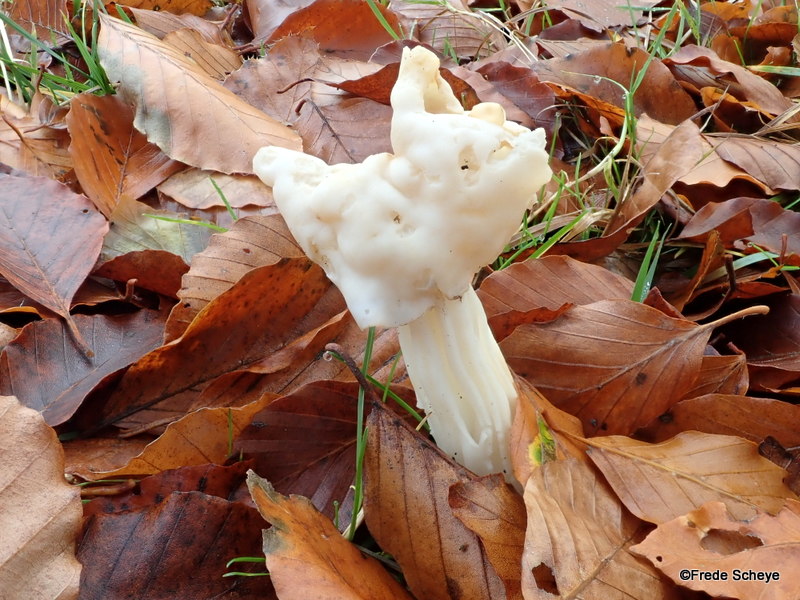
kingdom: Fungi
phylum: Ascomycota
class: Pezizomycetes
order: Pezizales
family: Helvellaceae
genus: Helvella
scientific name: Helvella crispa
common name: kruset foldhat
